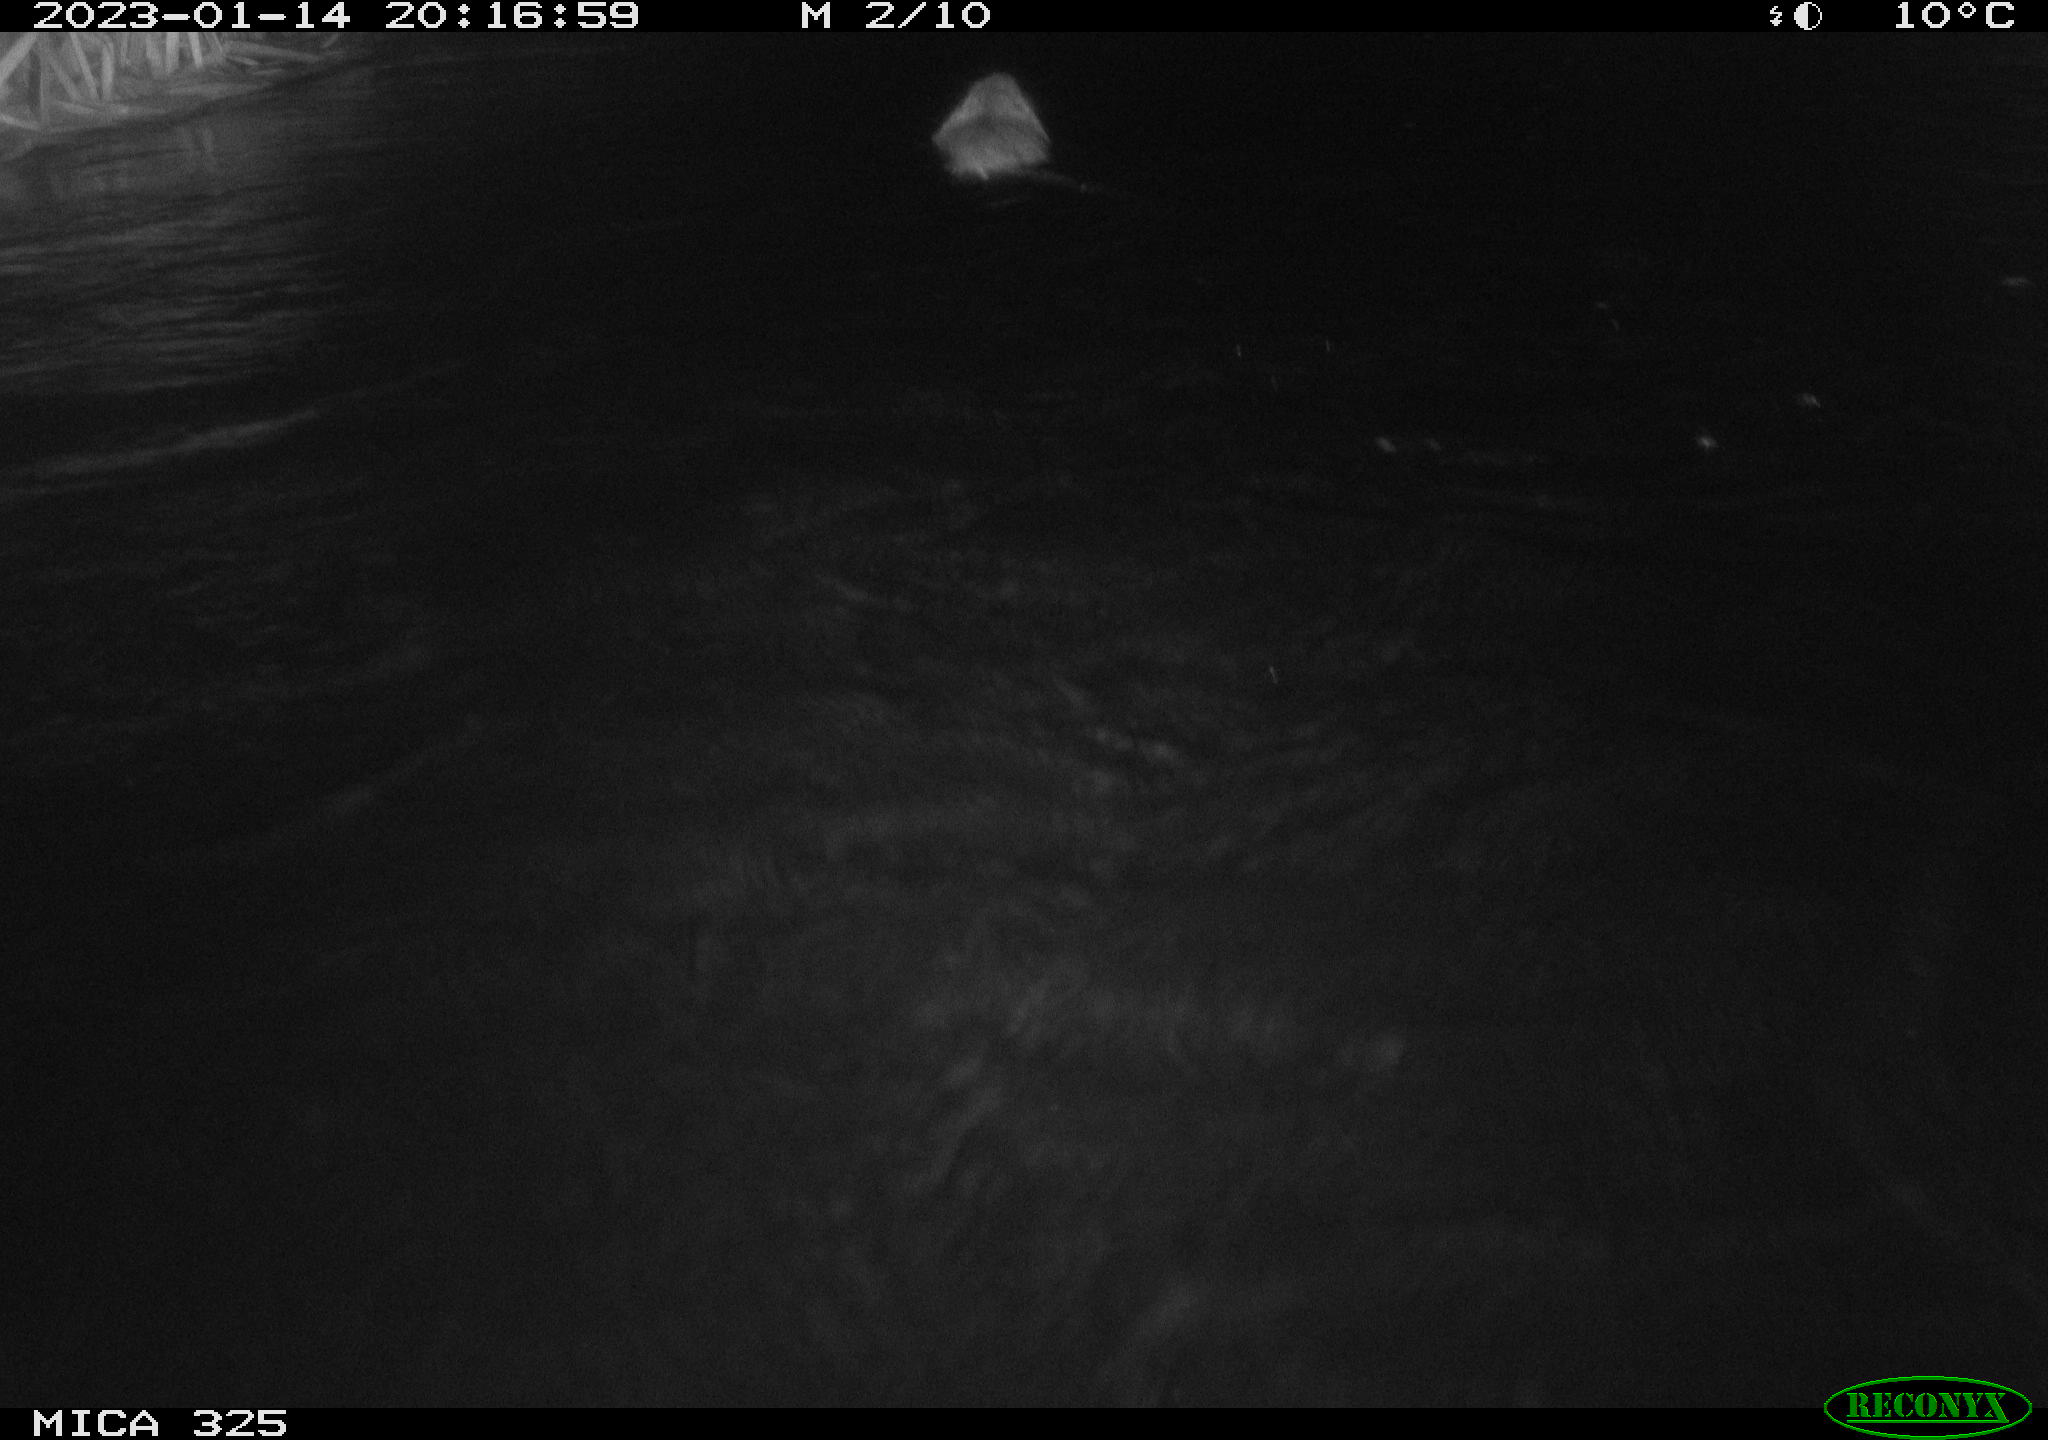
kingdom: Animalia
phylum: Chordata
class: Mammalia
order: Rodentia
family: Myocastoridae
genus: Myocastor
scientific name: Myocastor coypus
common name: Coypu
